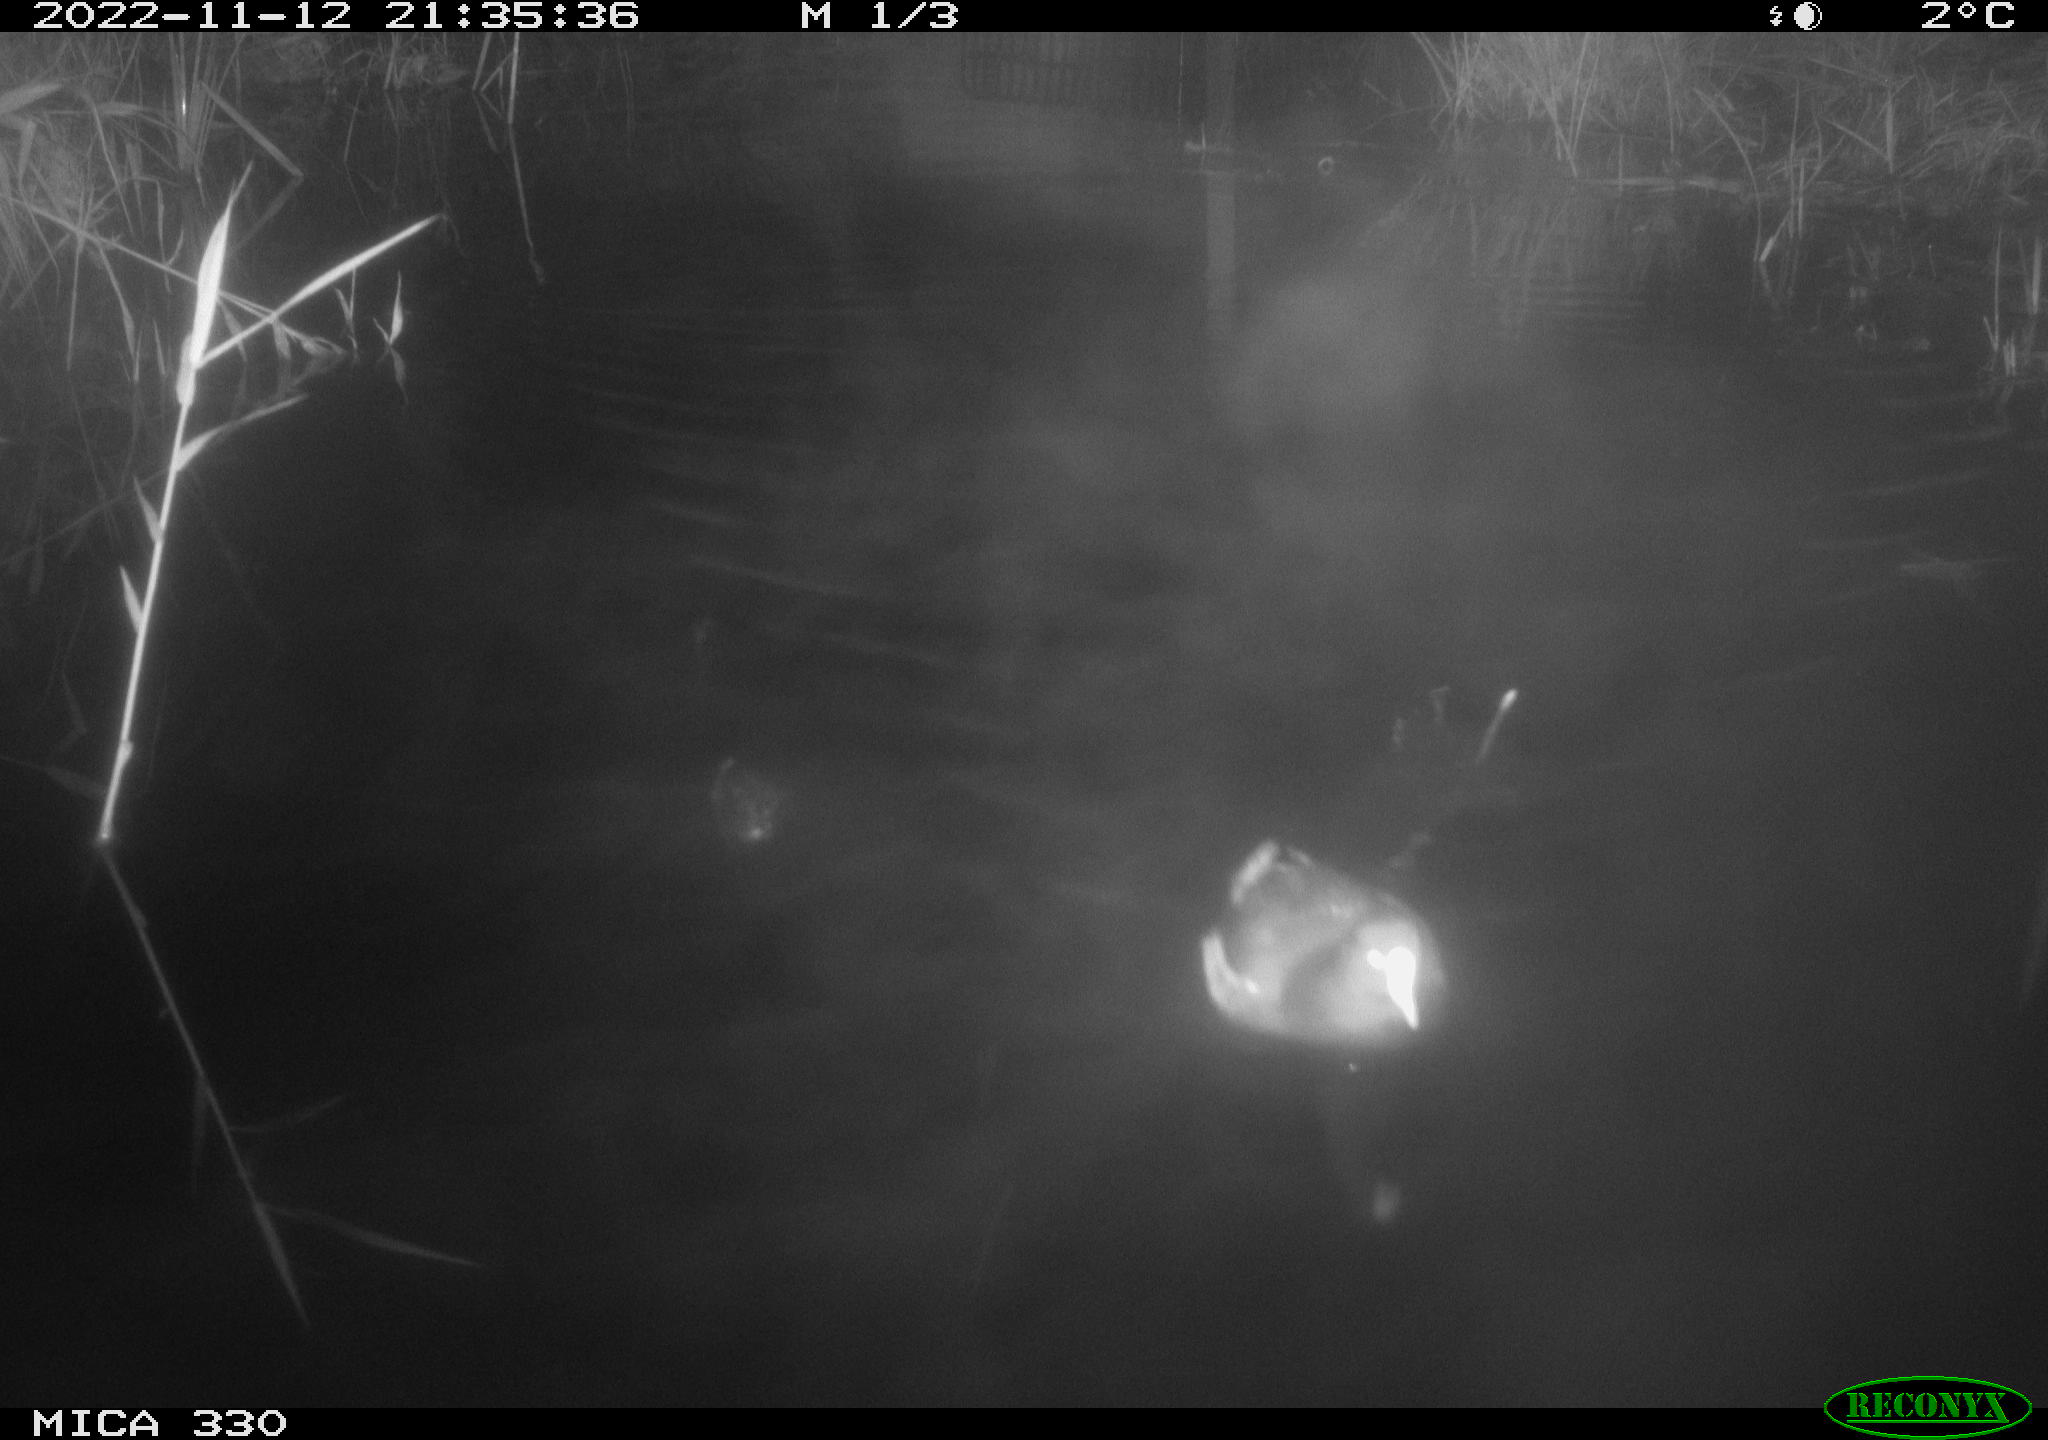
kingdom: Animalia
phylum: Chordata
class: Aves
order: Gruiformes
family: Rallidae
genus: Gallinula
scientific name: Gallinula chloropus
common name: Common moorhen
